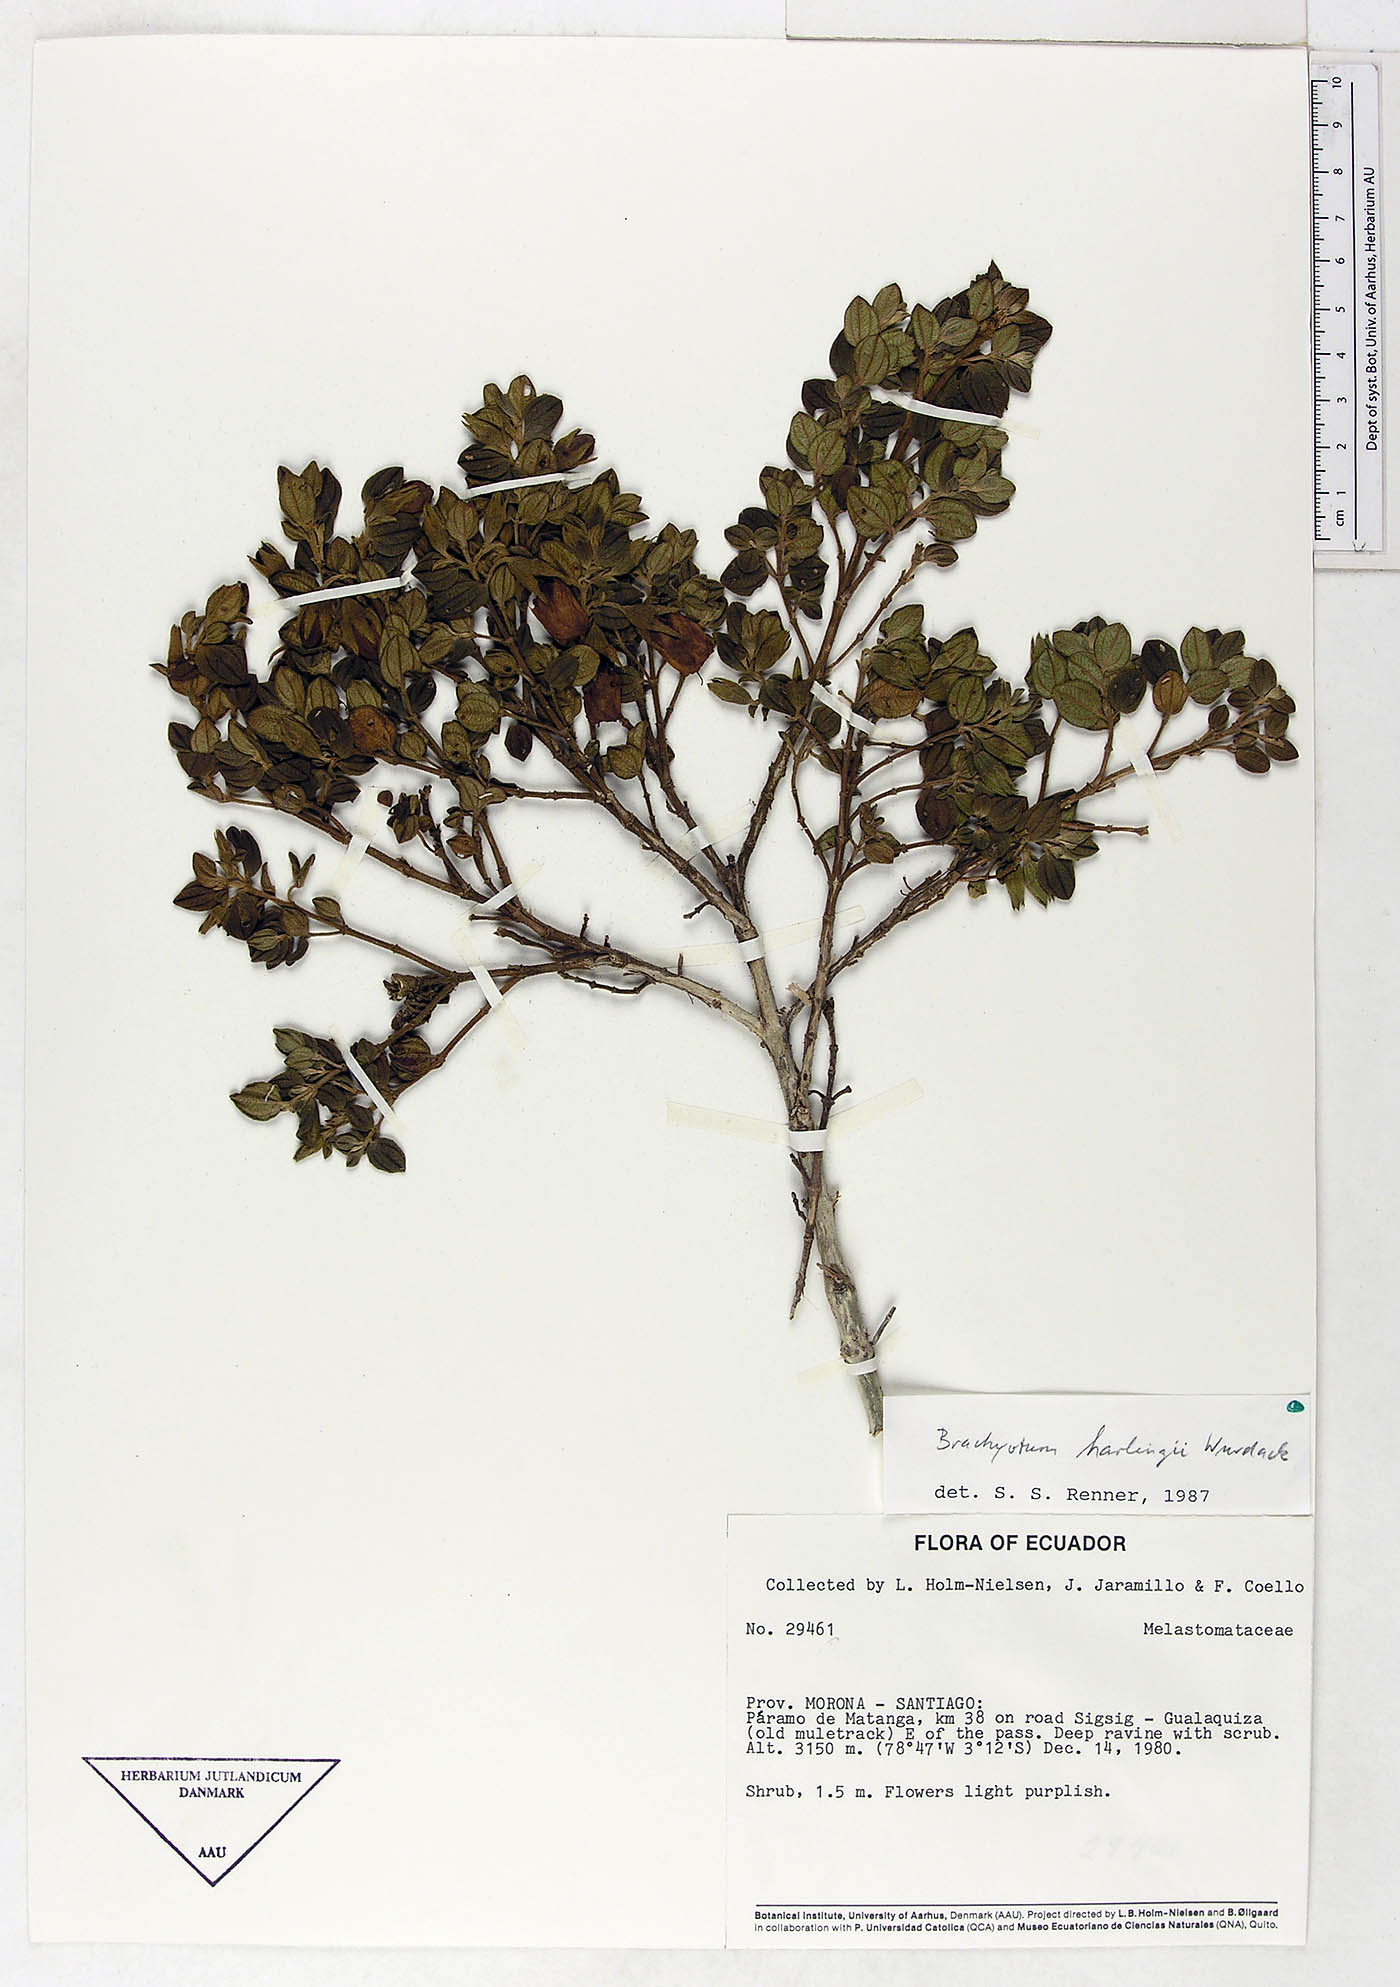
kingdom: Plantae
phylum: Tracheophyta
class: Magnoliopsida
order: Myrtales
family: Melastomataceae
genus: Brachyotum
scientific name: Brachyotum harlingii
